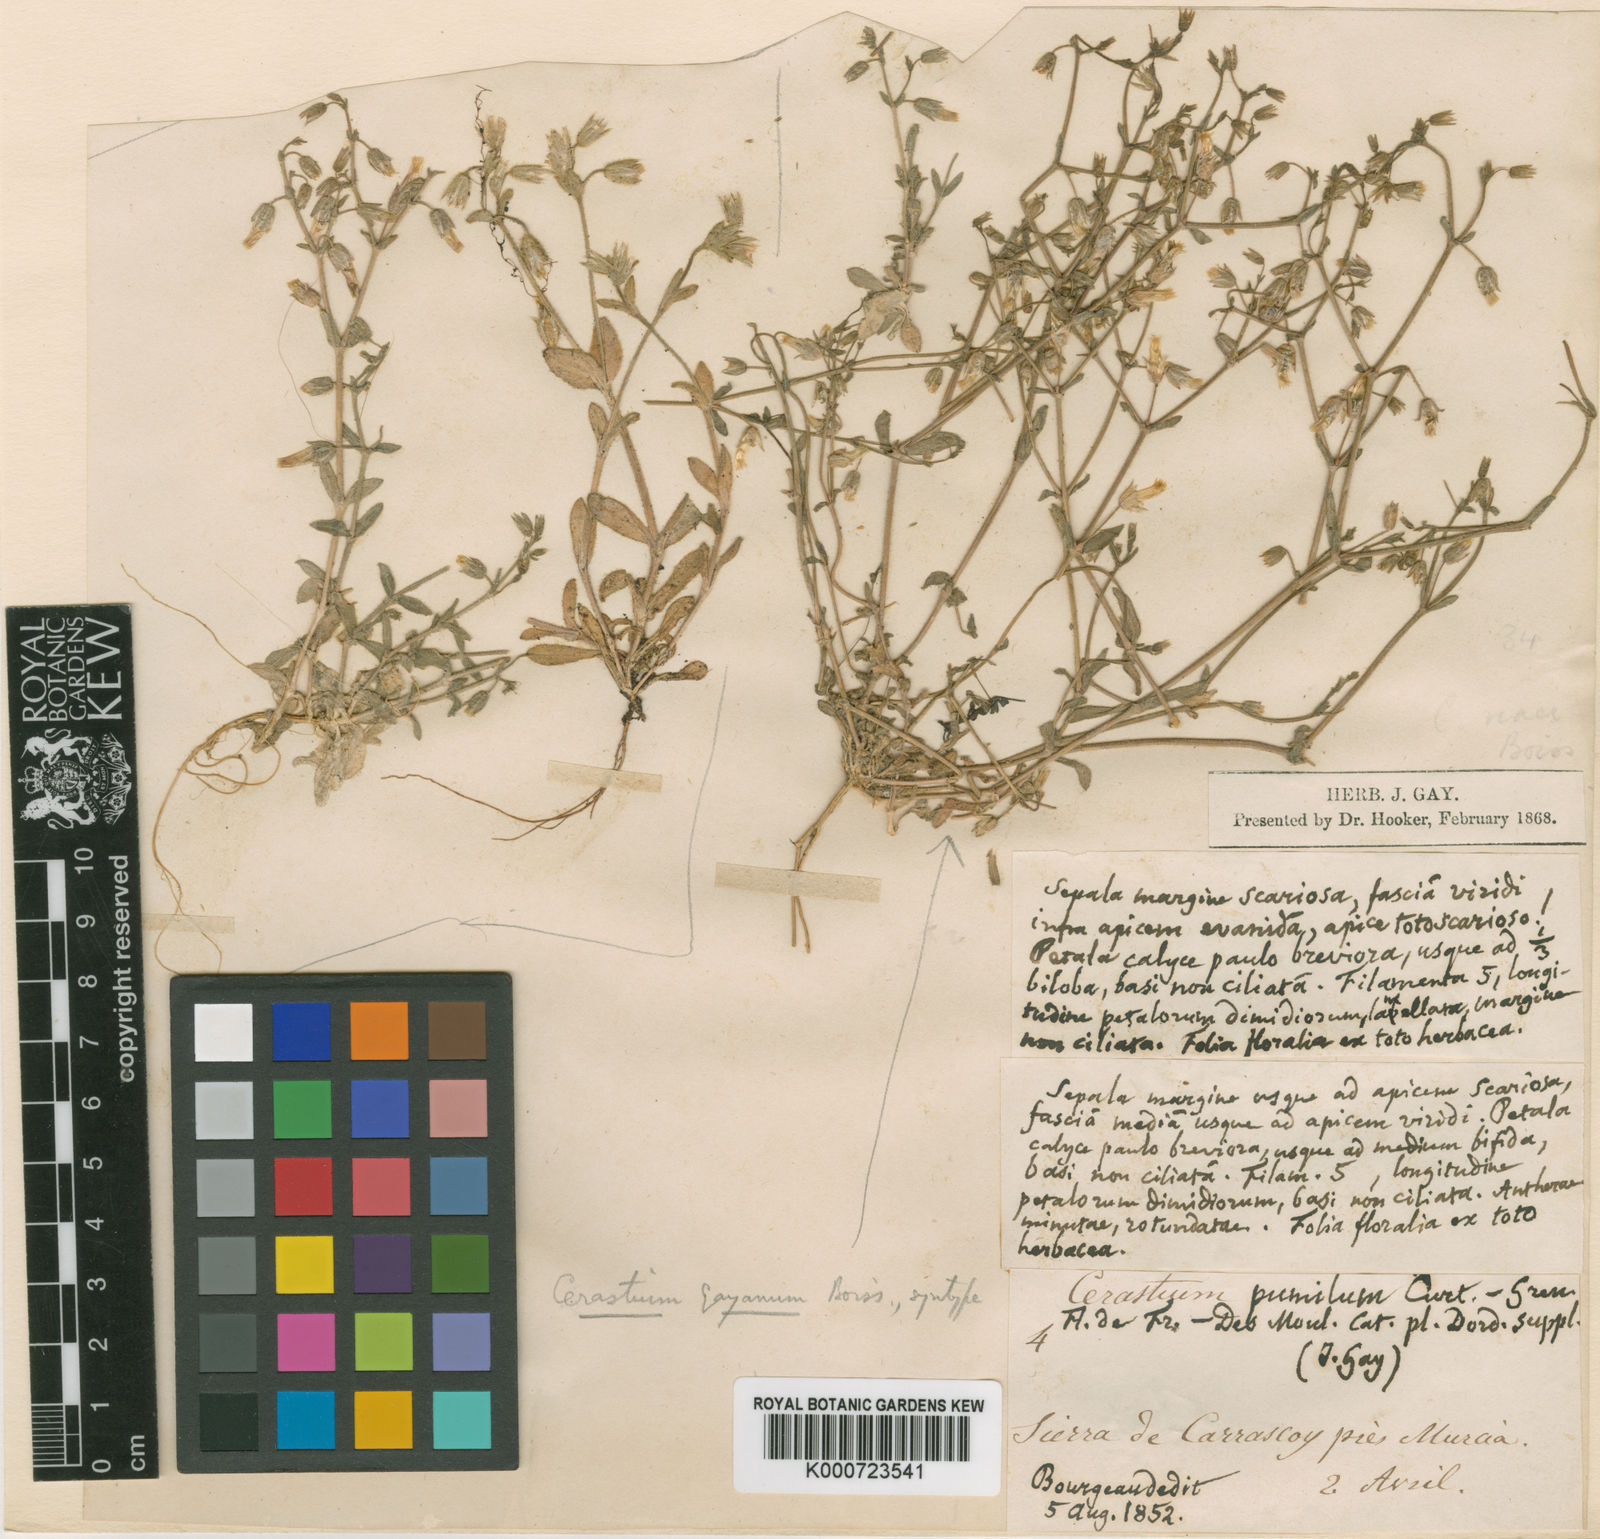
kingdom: Plantae
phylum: Tracheophyta
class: Magnoliopsida
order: Caryophyllales
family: Caryophyllaceae
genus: Cerastium
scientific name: Cerastium gracile
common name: Slender chickweed
